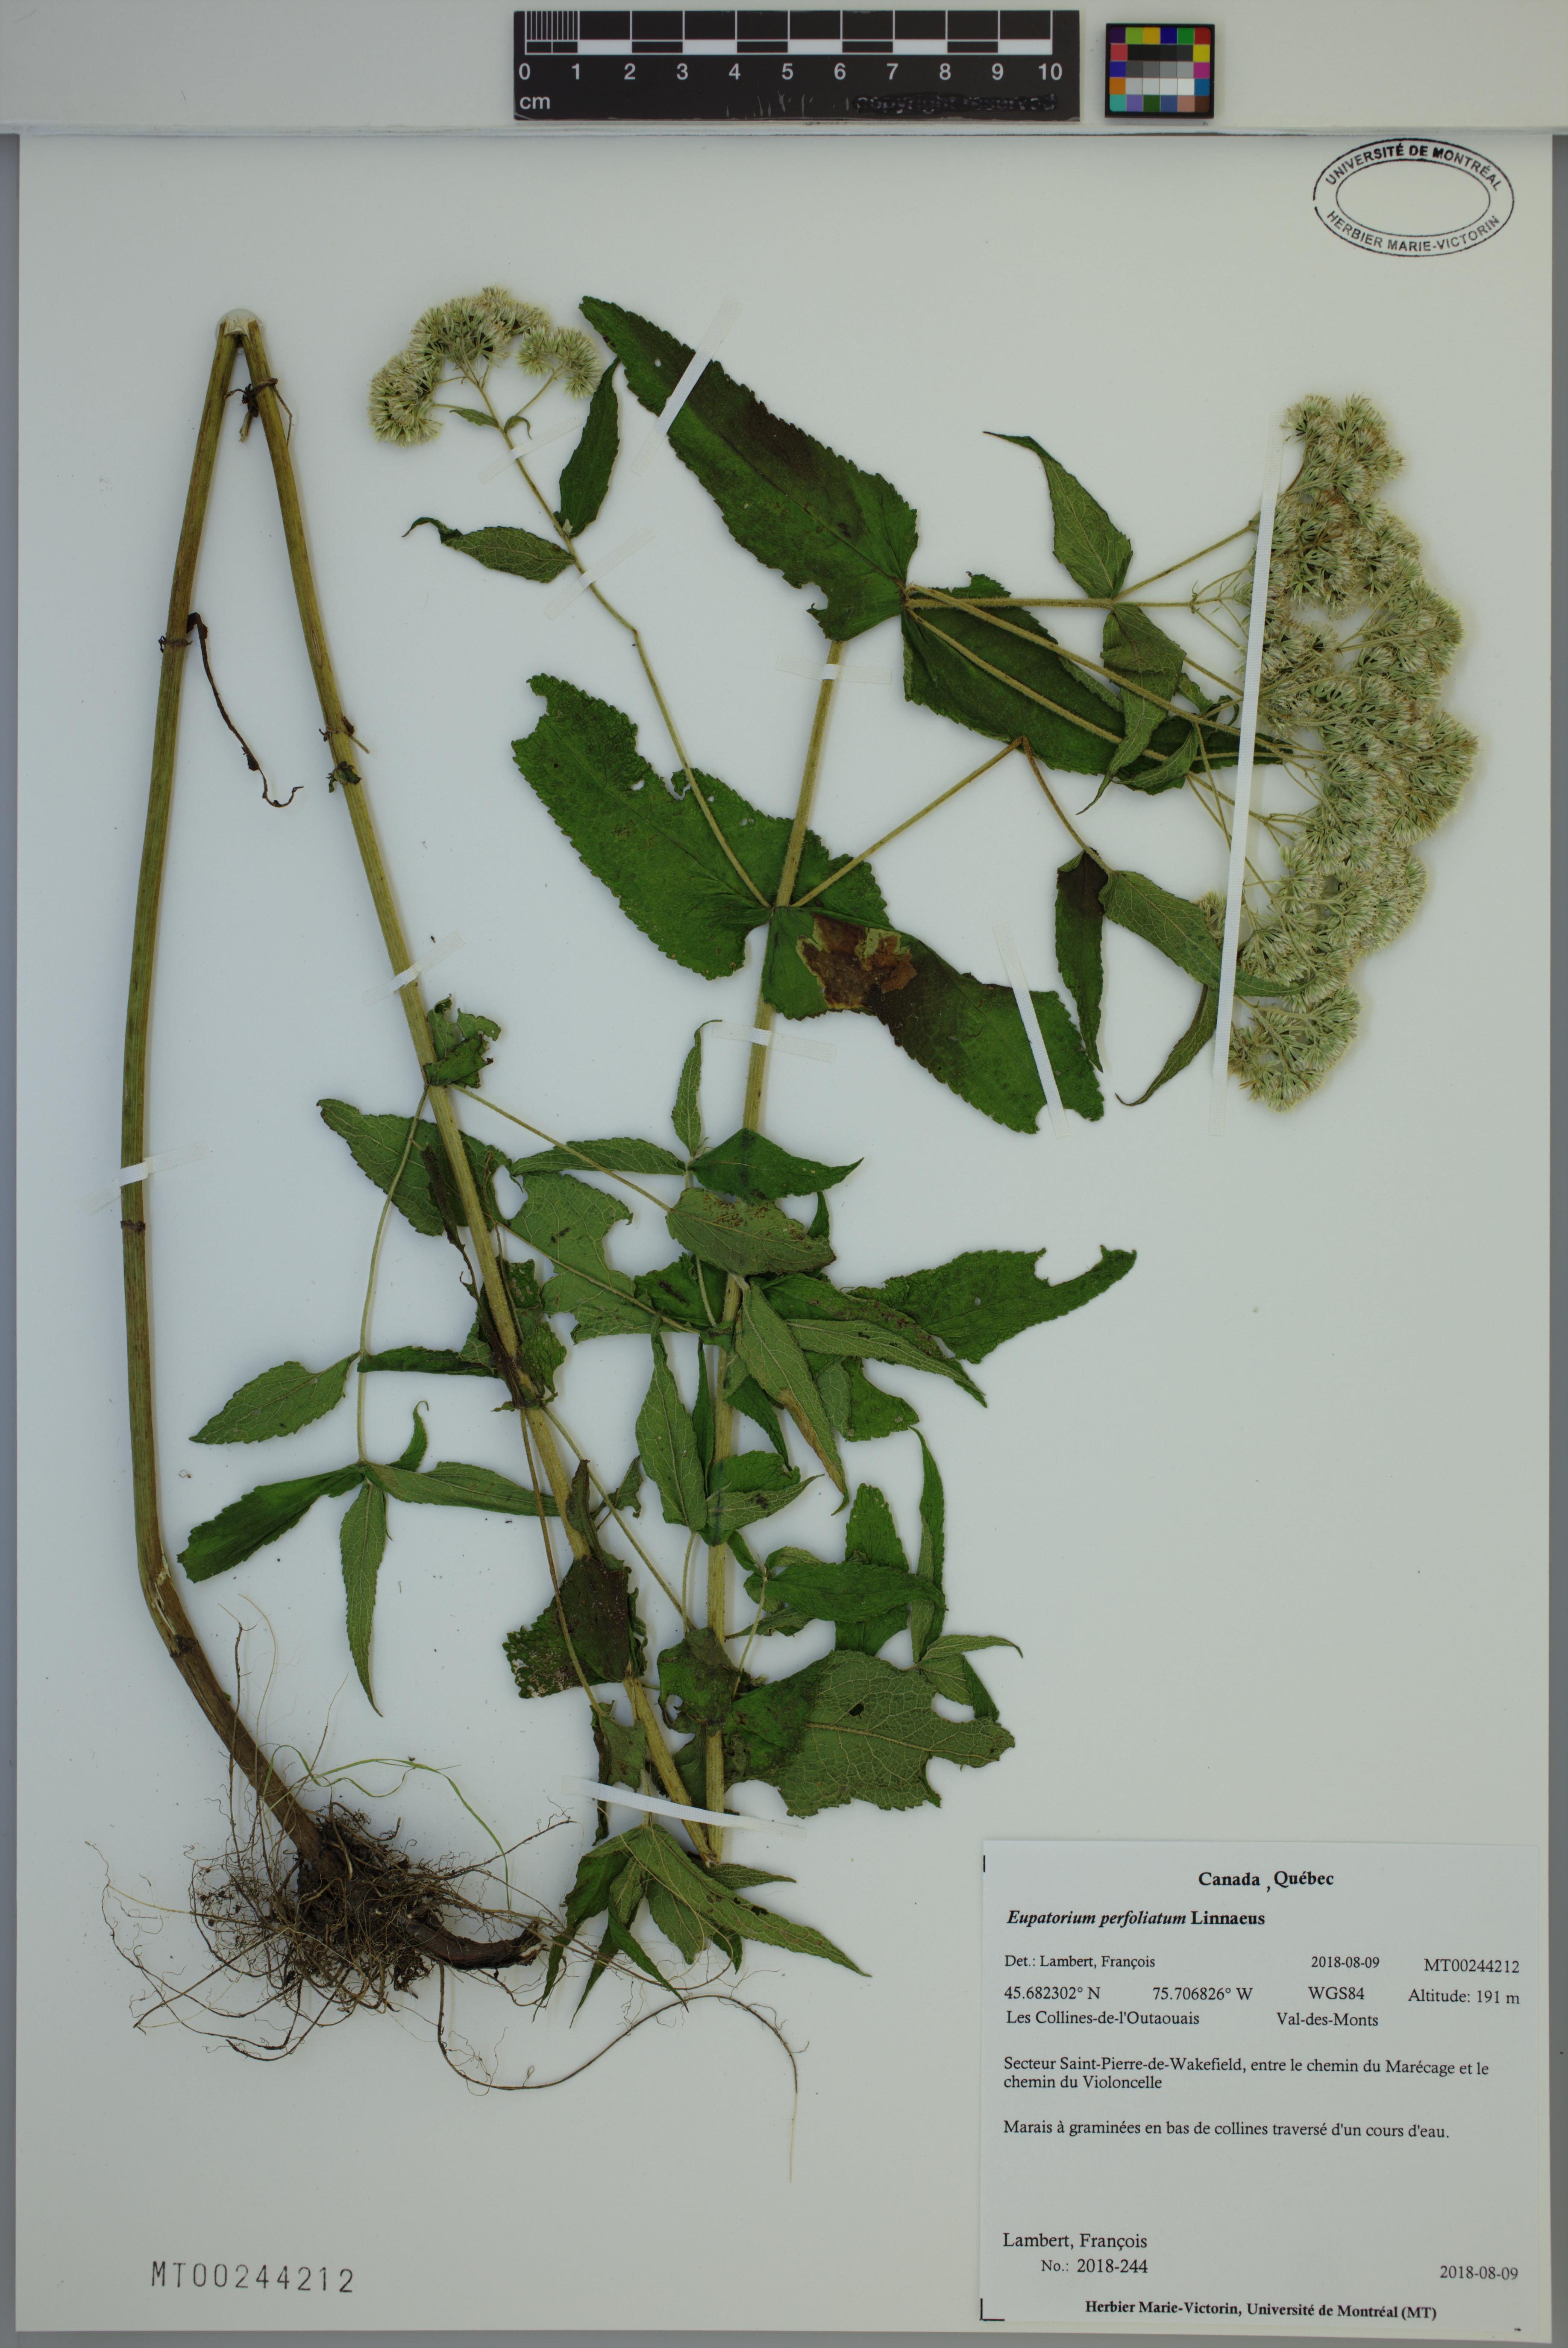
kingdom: Plantae
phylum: Tracheophyta
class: Magnoliopsida
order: Asterales
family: Asteraceae
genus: Eupatorium
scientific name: Eupatorium perfoliatum
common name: Boneset
